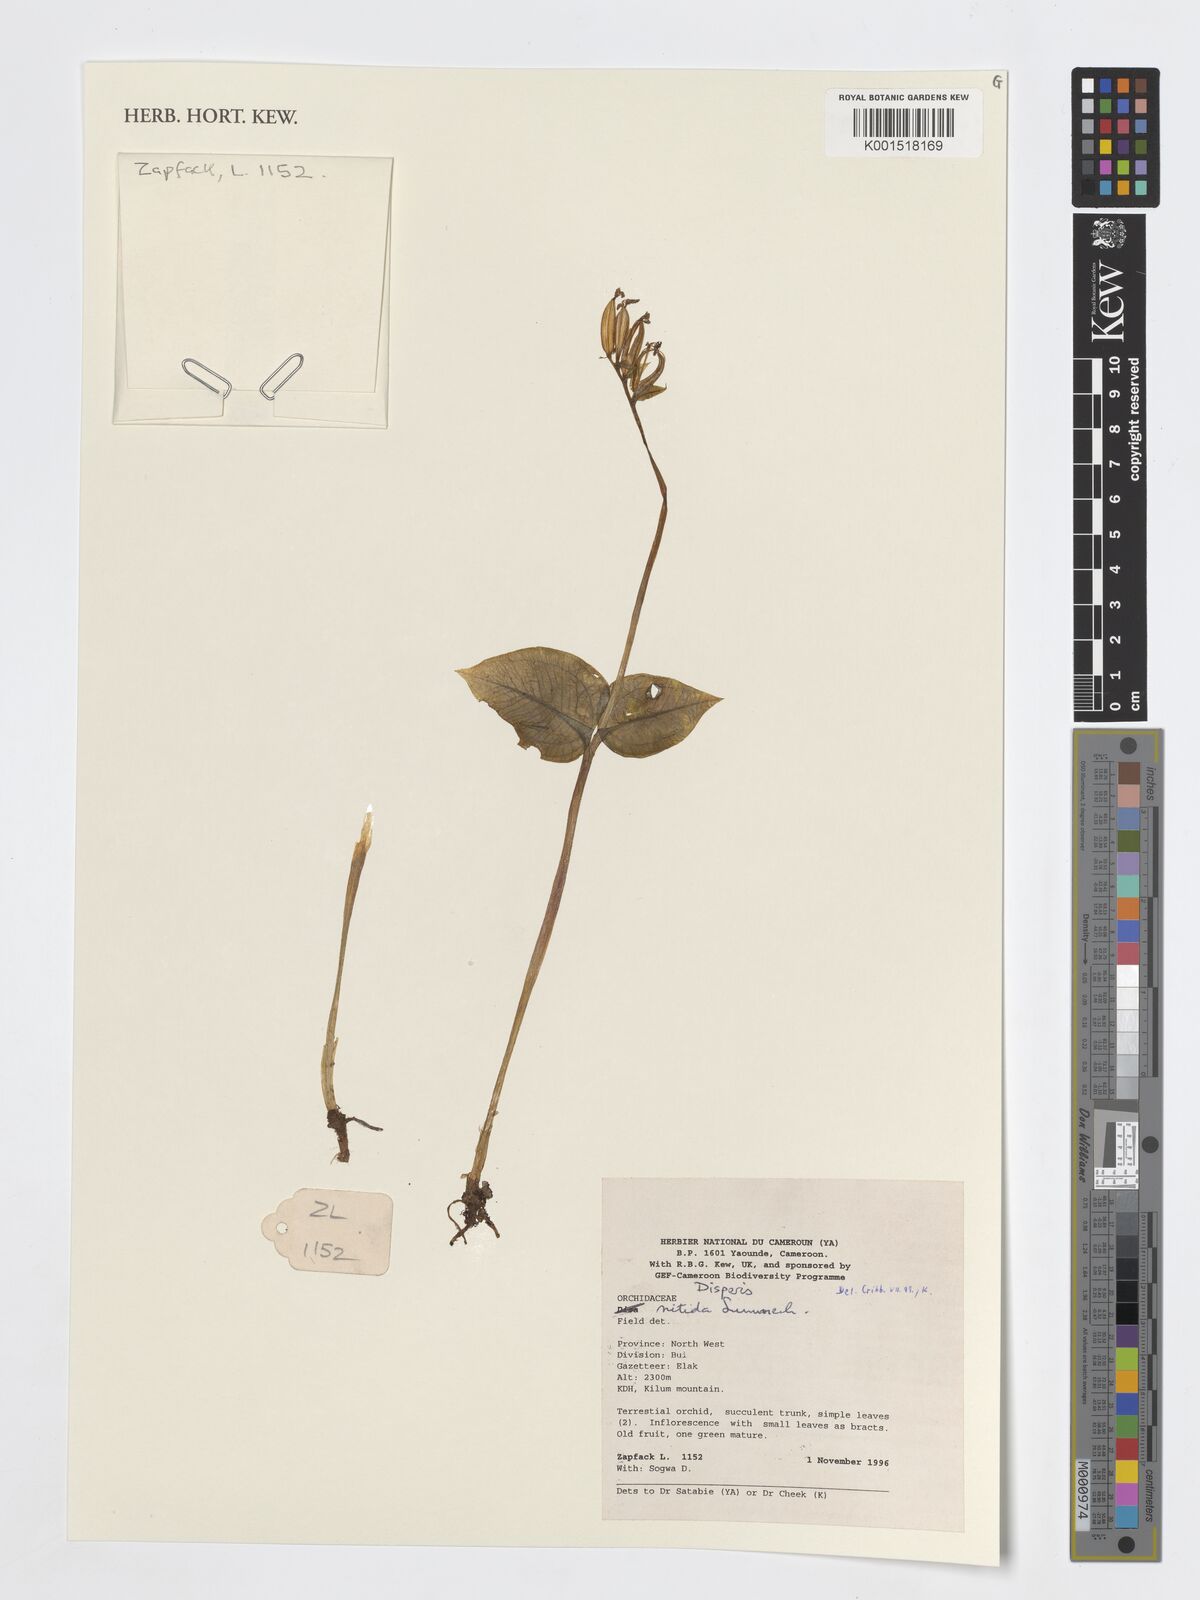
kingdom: Plantae
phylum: Tracheophyta
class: Liliopsida
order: Asparagales
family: Orchidaceae
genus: Disperis
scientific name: Disperis nitida
